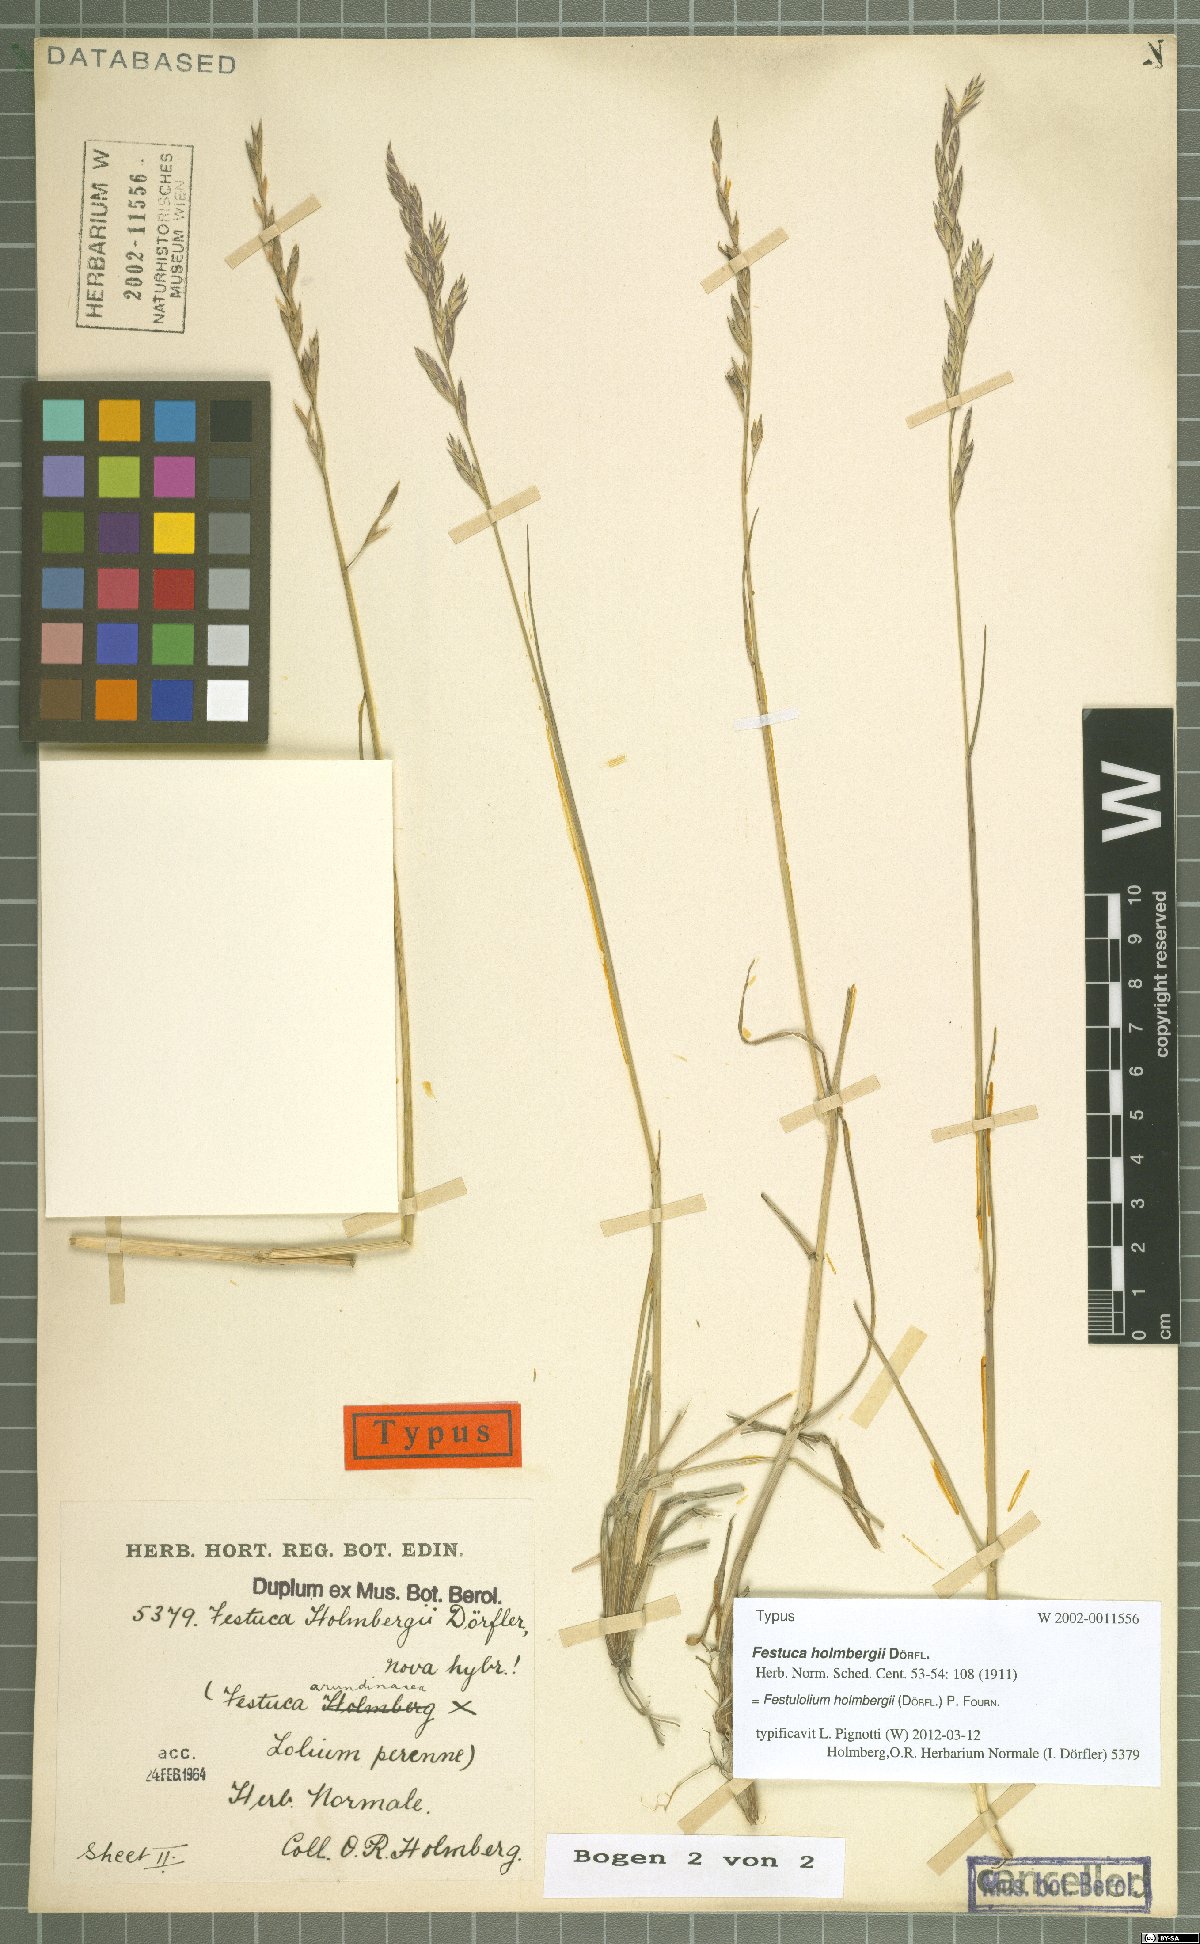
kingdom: Plantae
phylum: Tracheophyta
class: Liliopsida
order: Poales
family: Poaceae
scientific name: Poaceae
